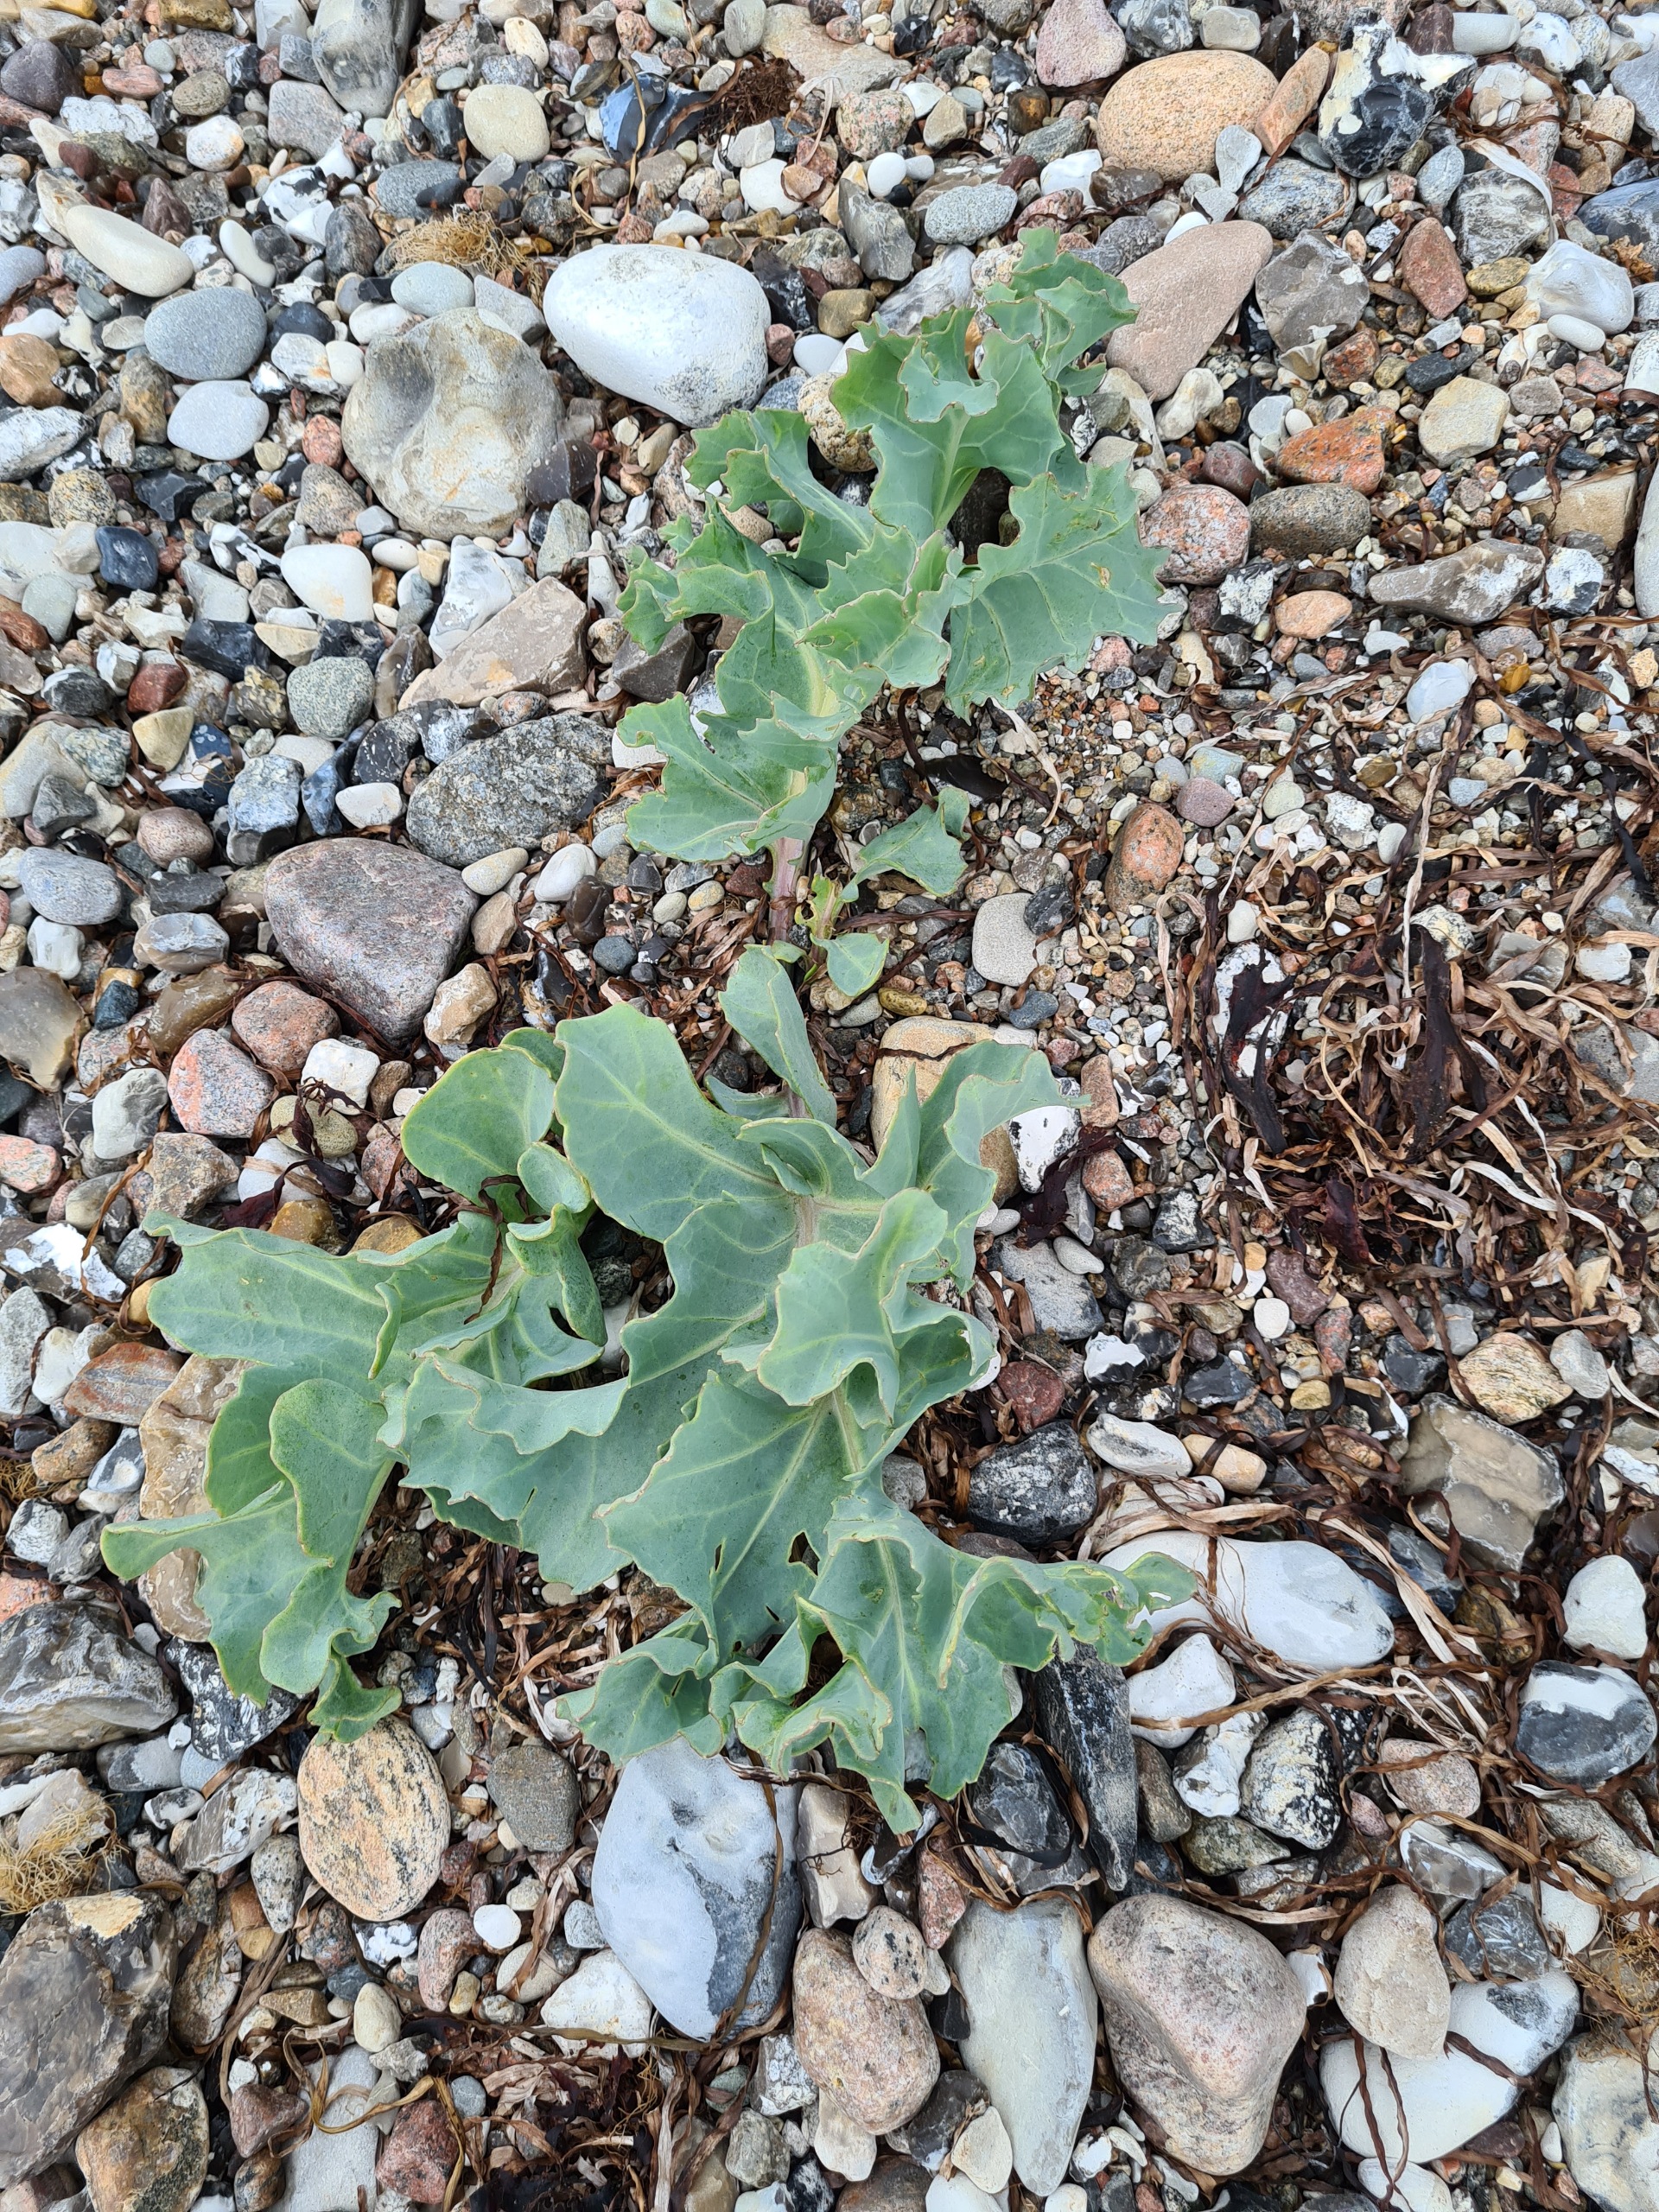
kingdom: Plantae
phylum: Tracheophyta
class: Magnoliopsida
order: Brassicales
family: Brassicaceae
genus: Crambe
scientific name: Crambe maritima
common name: Strandkål
